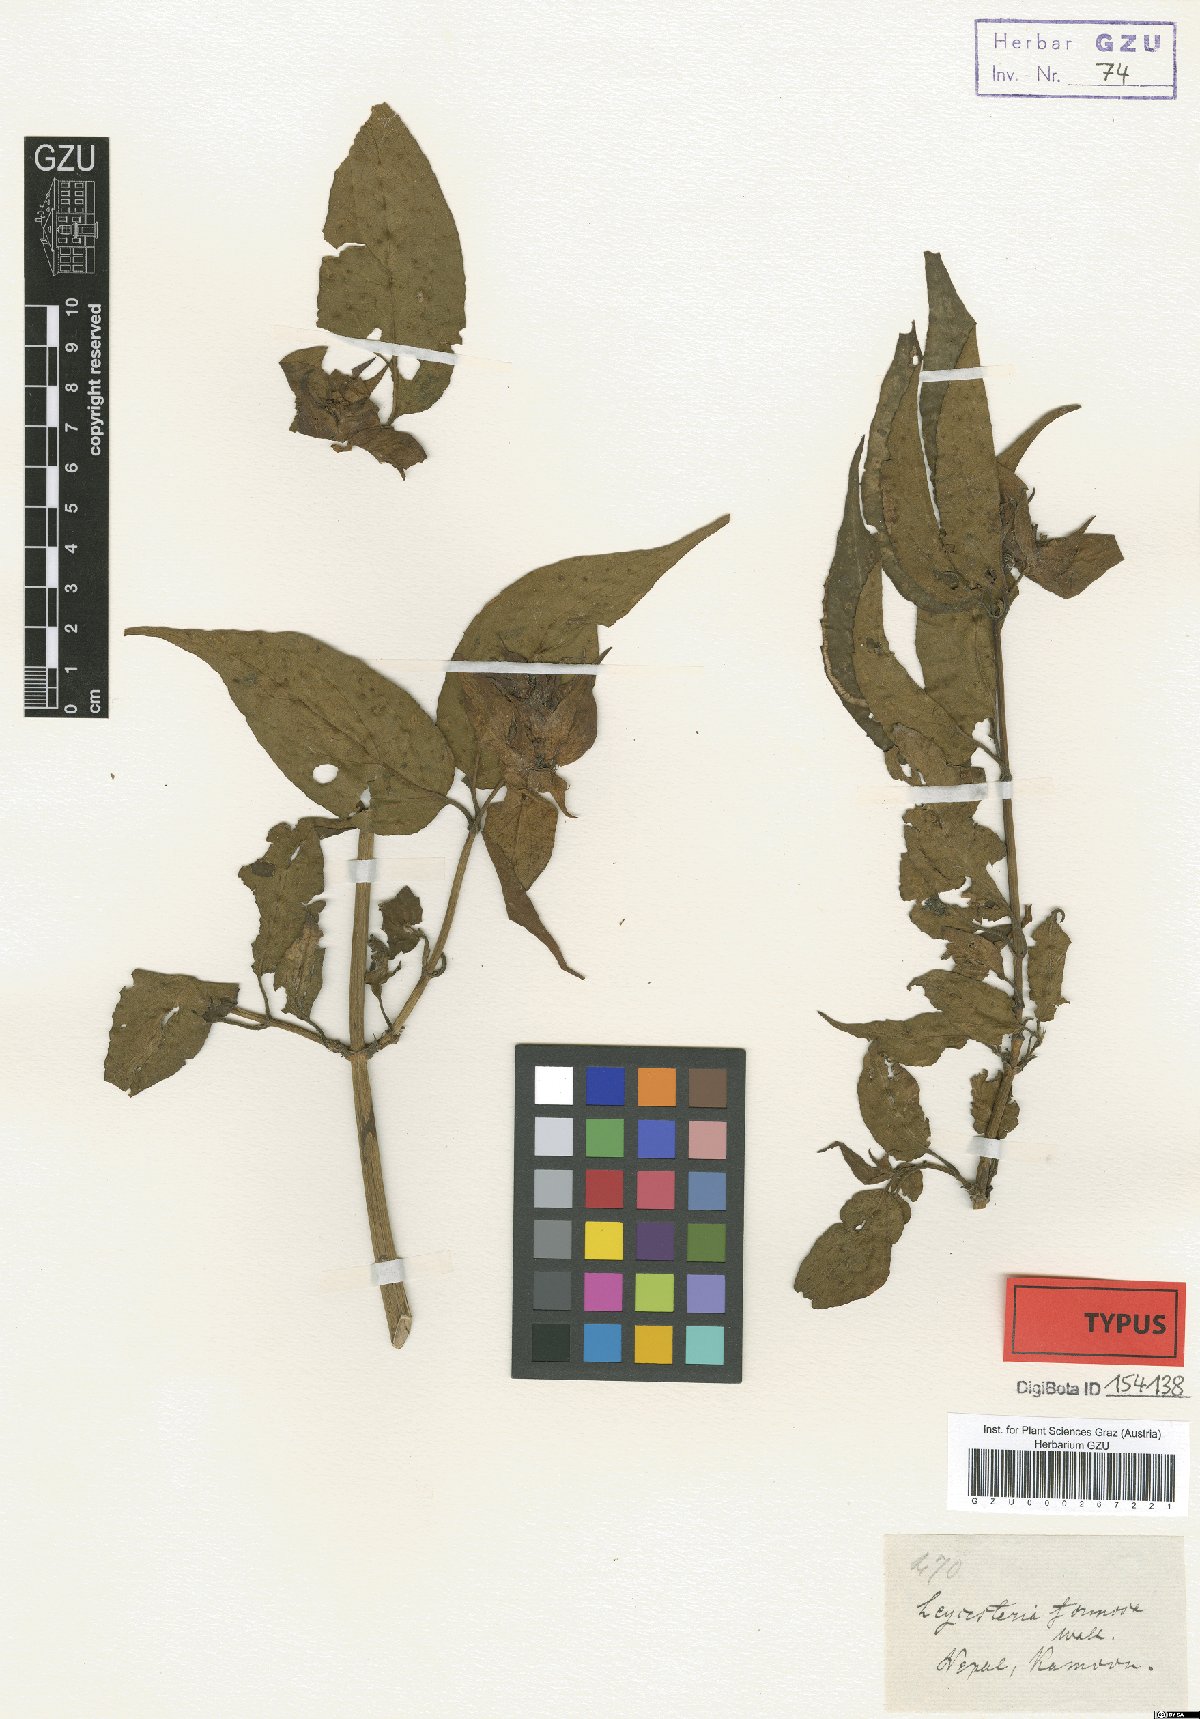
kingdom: Plantae
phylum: Tracheophyta
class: Magnoliopsida
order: Dipsacales
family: Caprifoliaceae
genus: Leycesteria
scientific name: Leycesteria formosa
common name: Himalayan honeysuckle
